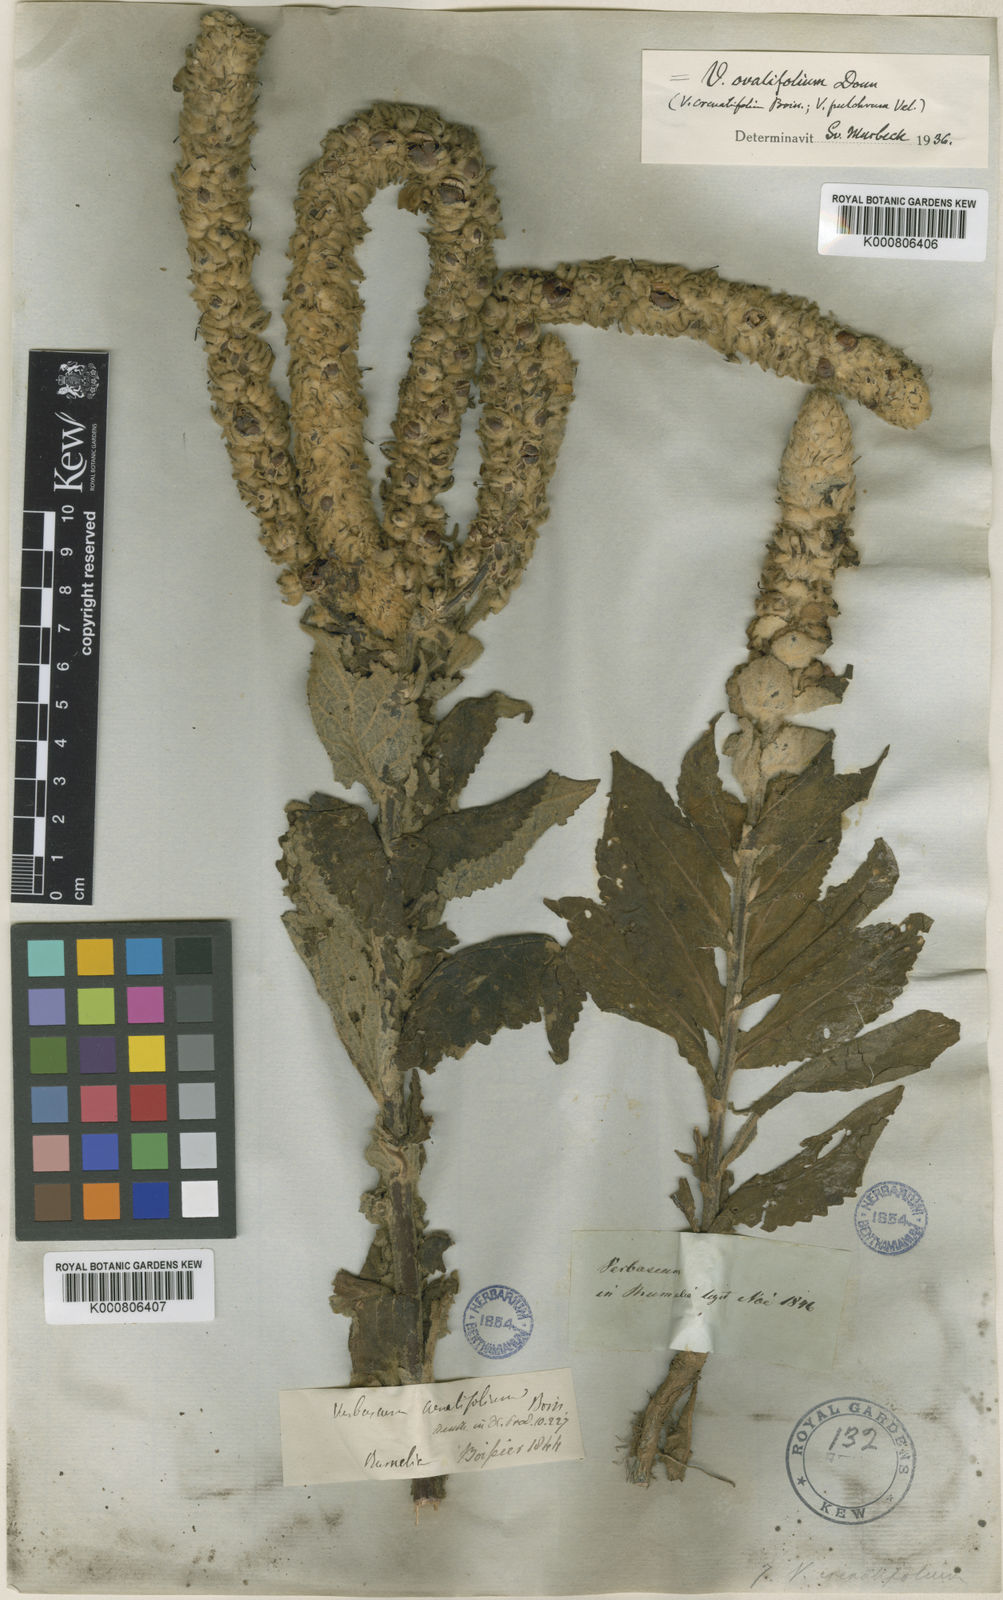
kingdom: Plantae
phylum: Tracheophyta
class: Magnoliopsida
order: Lamiales
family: Scrophulariaceae
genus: Verbascum
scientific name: Verbascum
